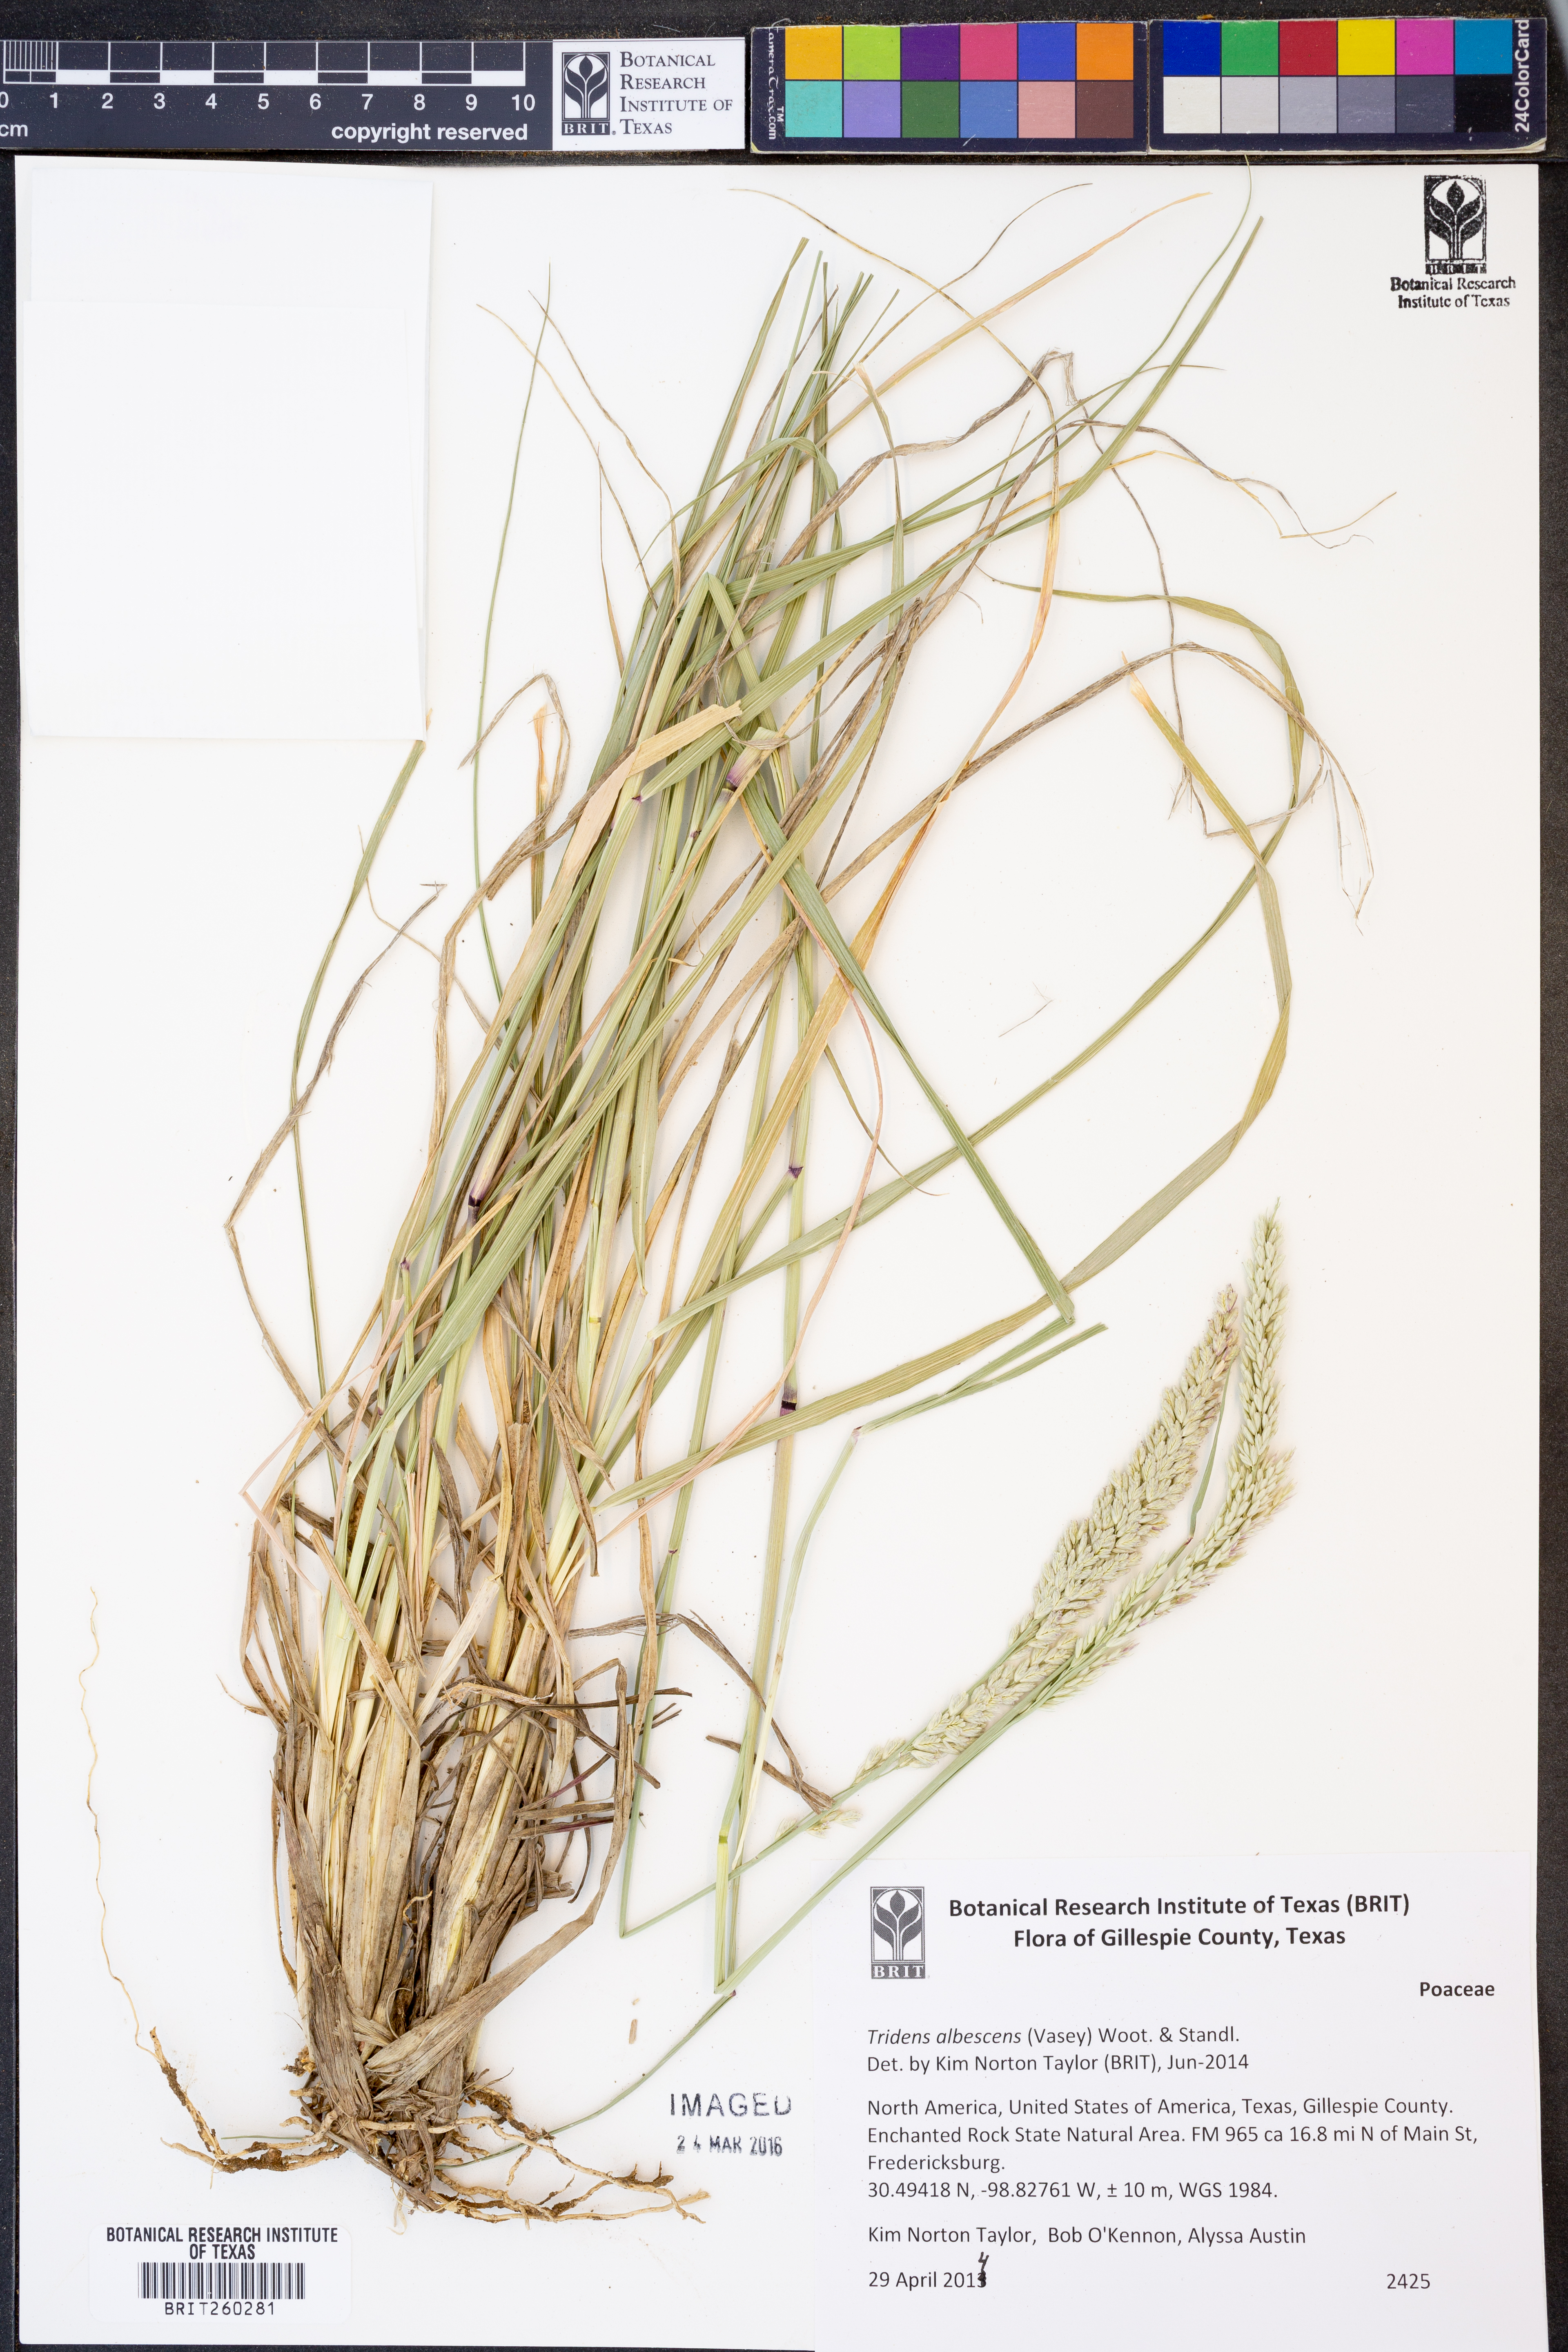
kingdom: Plantae
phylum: Tracheophyta
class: Liliopsida
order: Poales
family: Poaceae
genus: Tridens
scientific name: Tridens albescens
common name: White tridens
